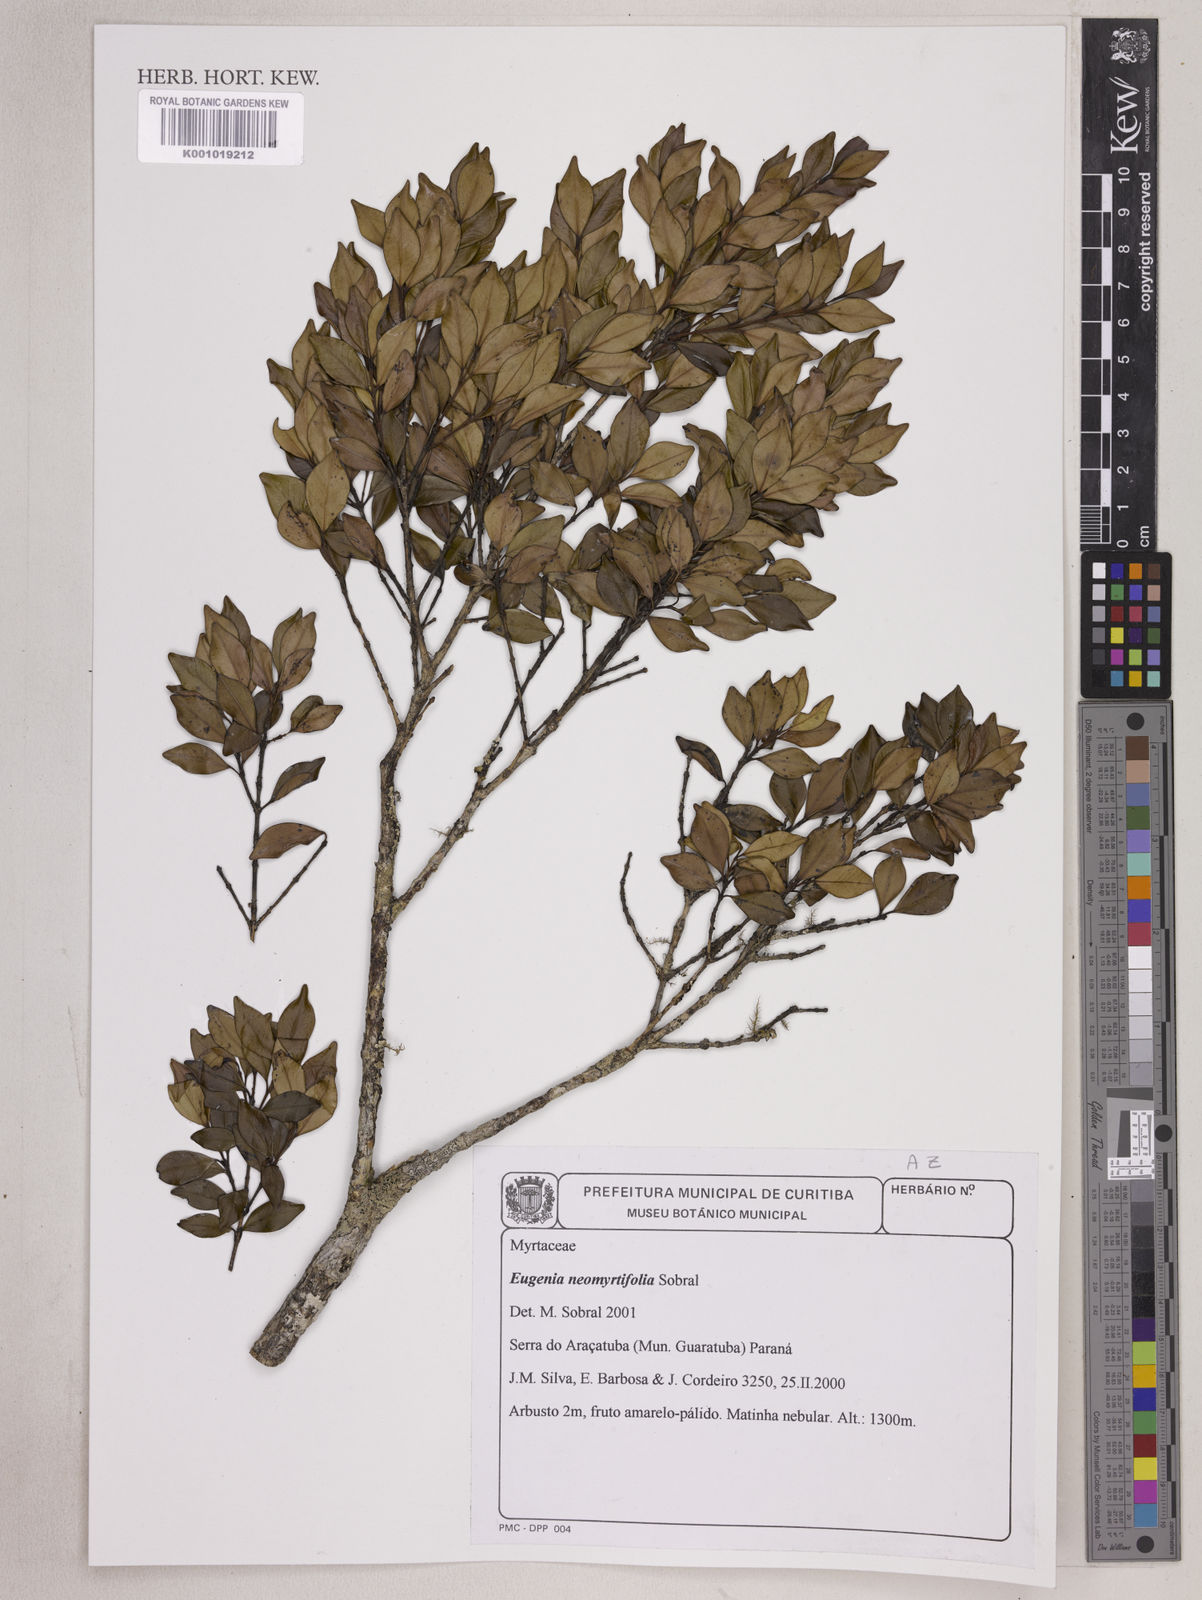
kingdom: Plantae
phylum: Tracheophyta
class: Magnoliopsida
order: Myrtales
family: Myrtaceae
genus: Eugenia
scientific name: Eugenia neomyrtifolia
